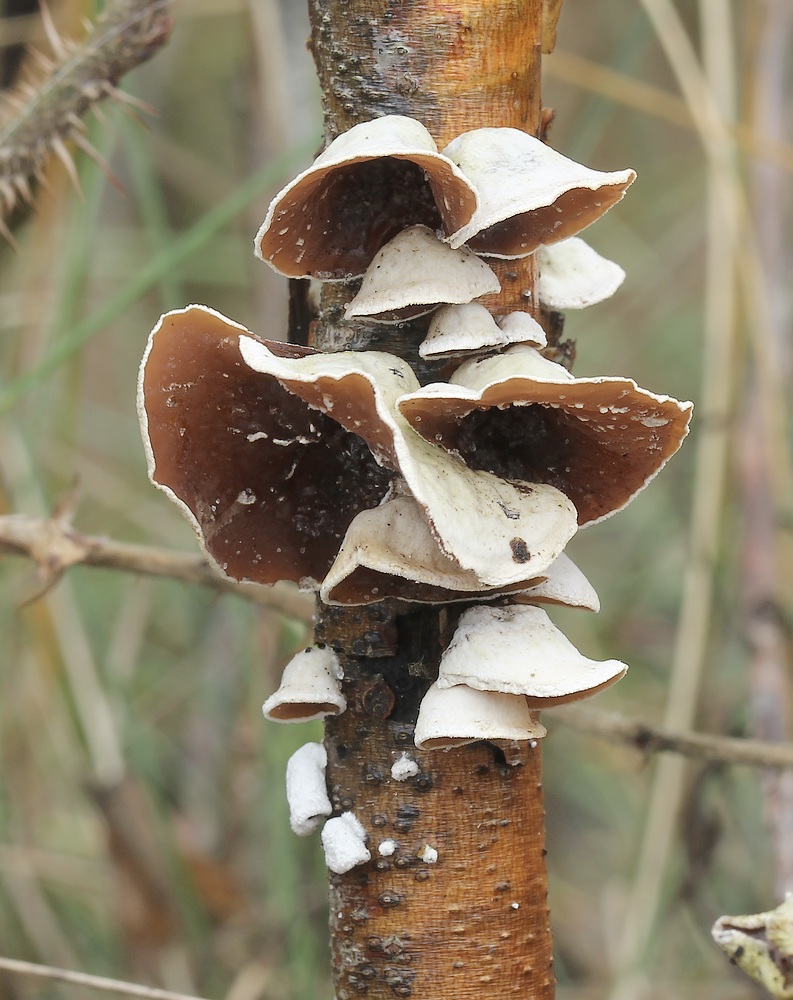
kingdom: Fungi
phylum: Basidiomycota
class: Agaricomycetes
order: Agaricales
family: Schizophyllaceae
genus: Schizophyllum
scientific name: Schizophyllum amplum
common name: poppel-hængeøre
